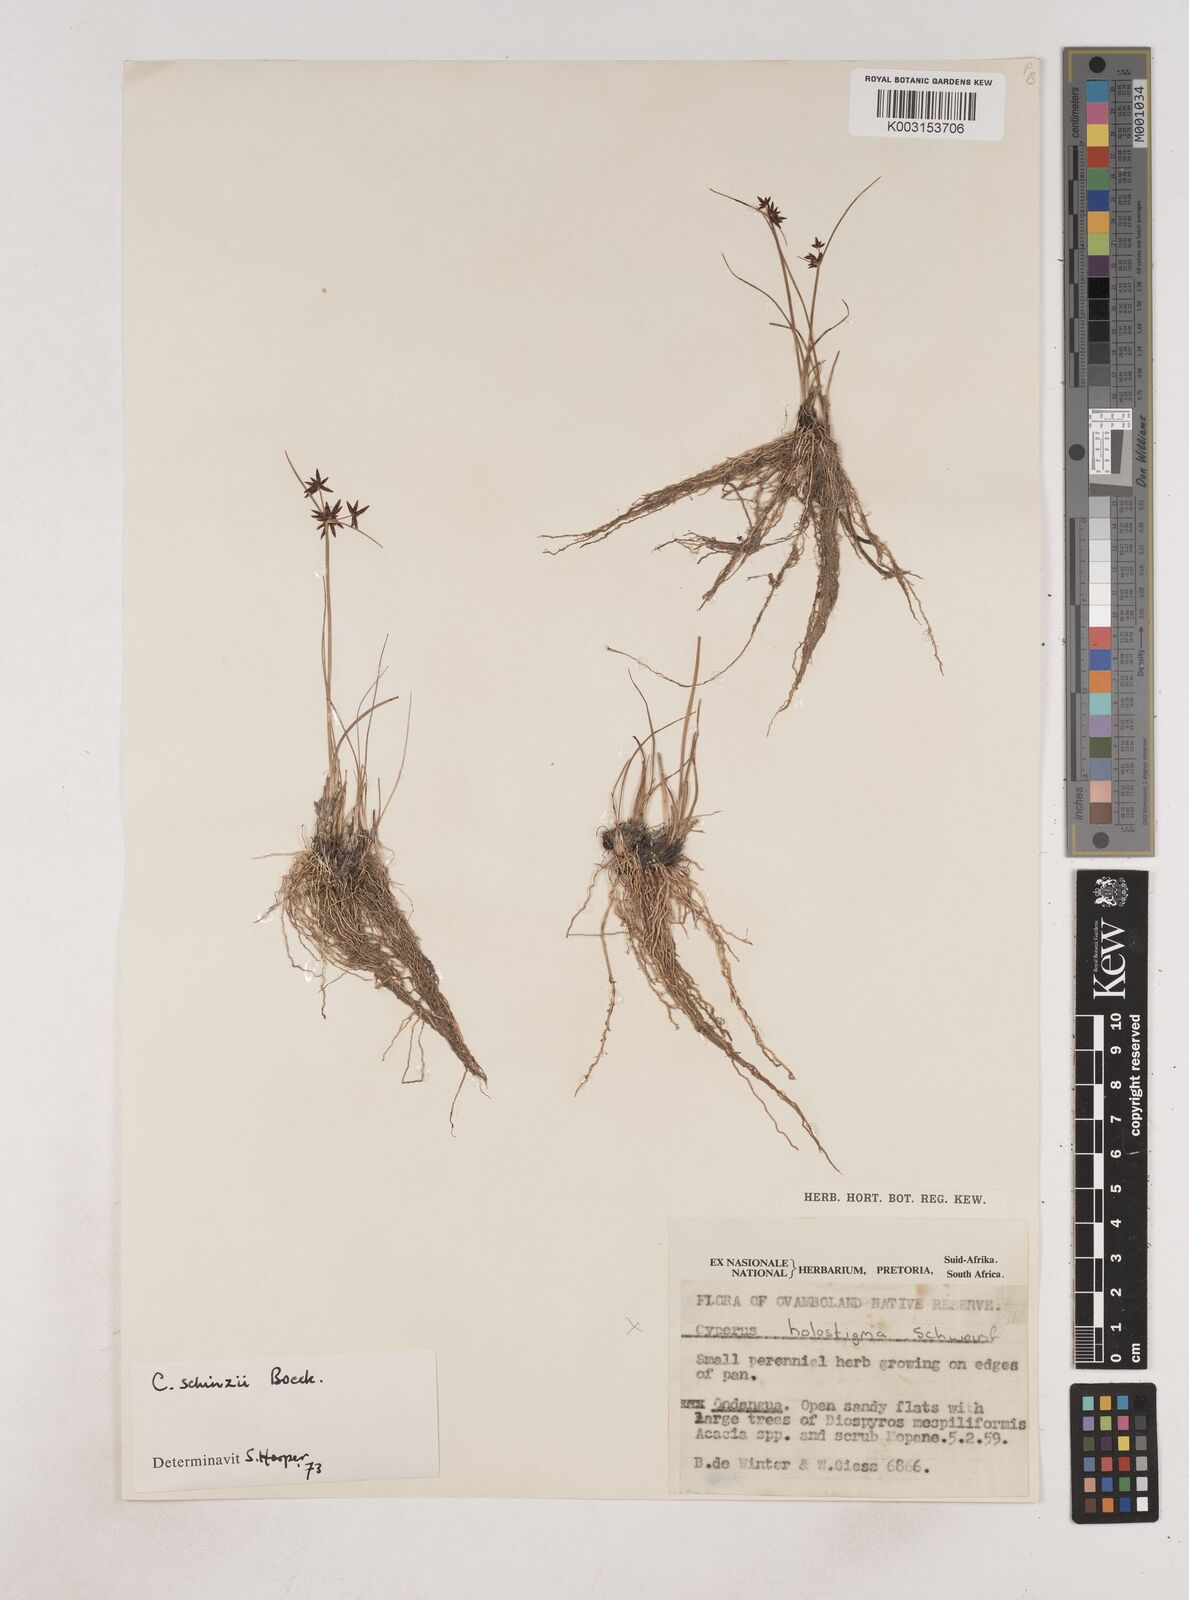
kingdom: Plantae
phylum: Tracheophyta
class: Liliopsida
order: Poales
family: Cyperaceae
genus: Cyperus
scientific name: Cyperus semitrifidus
